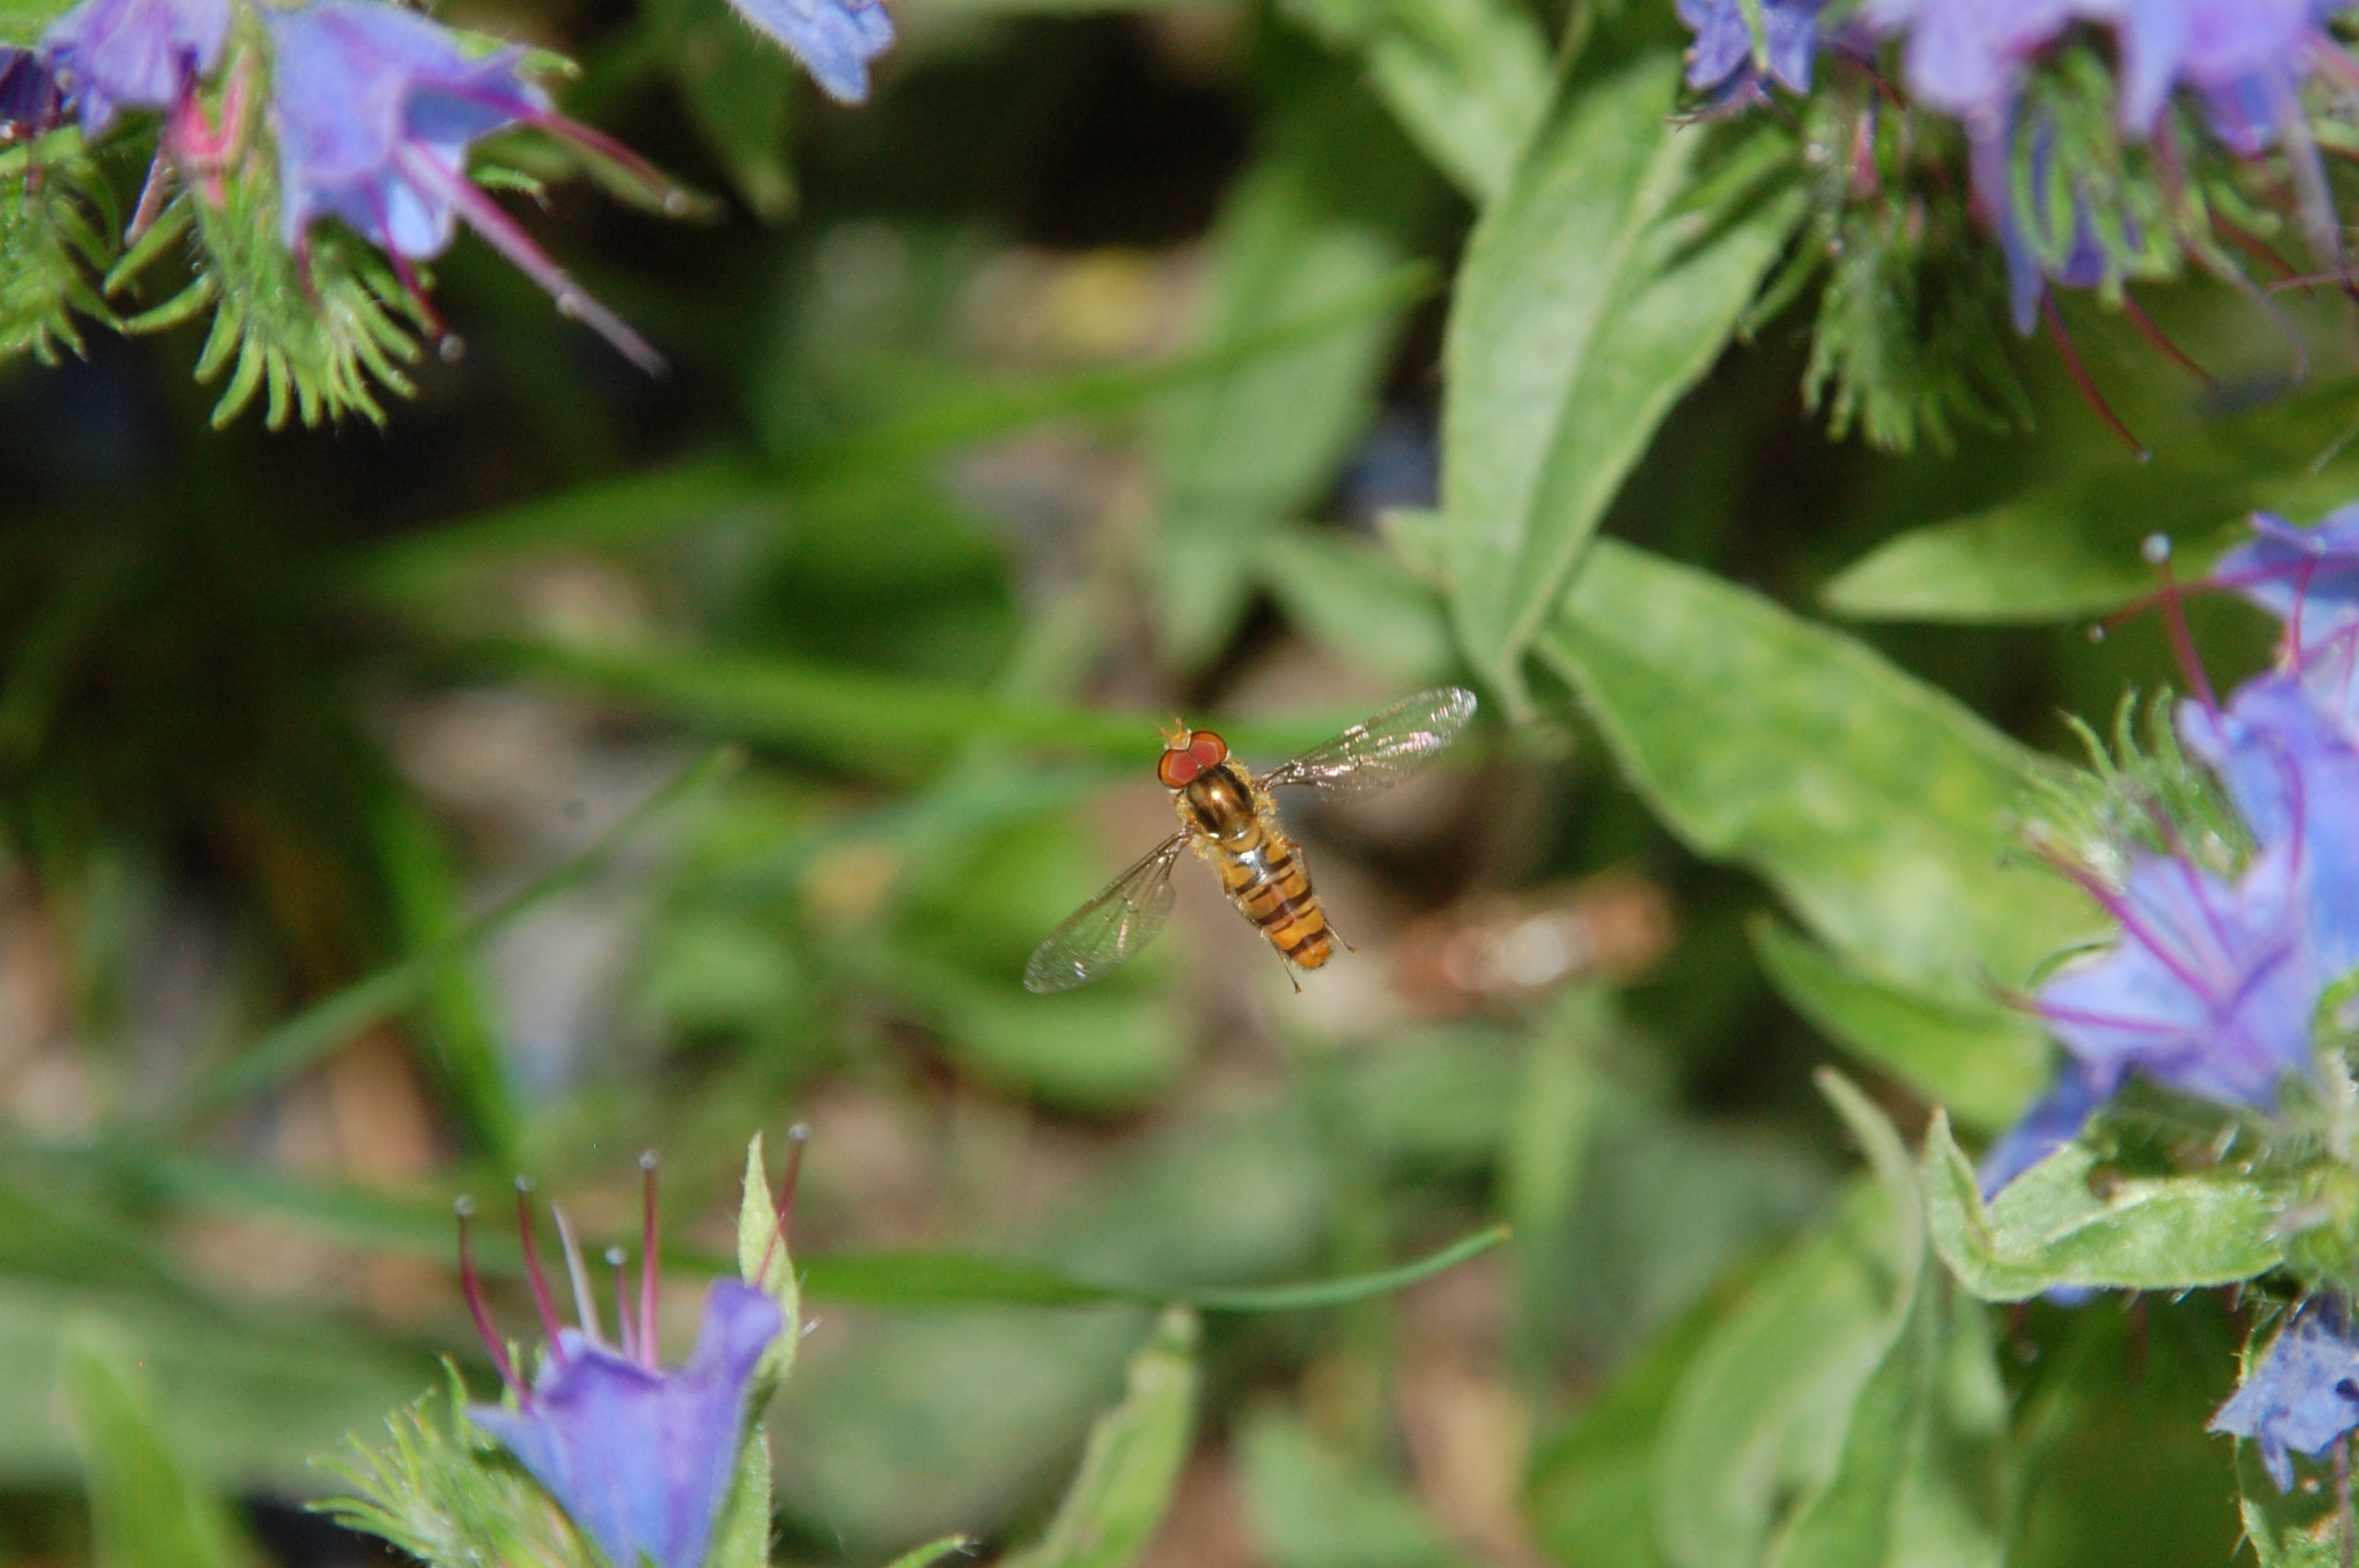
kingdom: Animalia
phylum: Arthropoda
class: Insecta
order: Diptera
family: Syrphidae
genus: Episyrphus
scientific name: Episyrphus balteatus
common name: Dobbeltbåndet svirreflue
